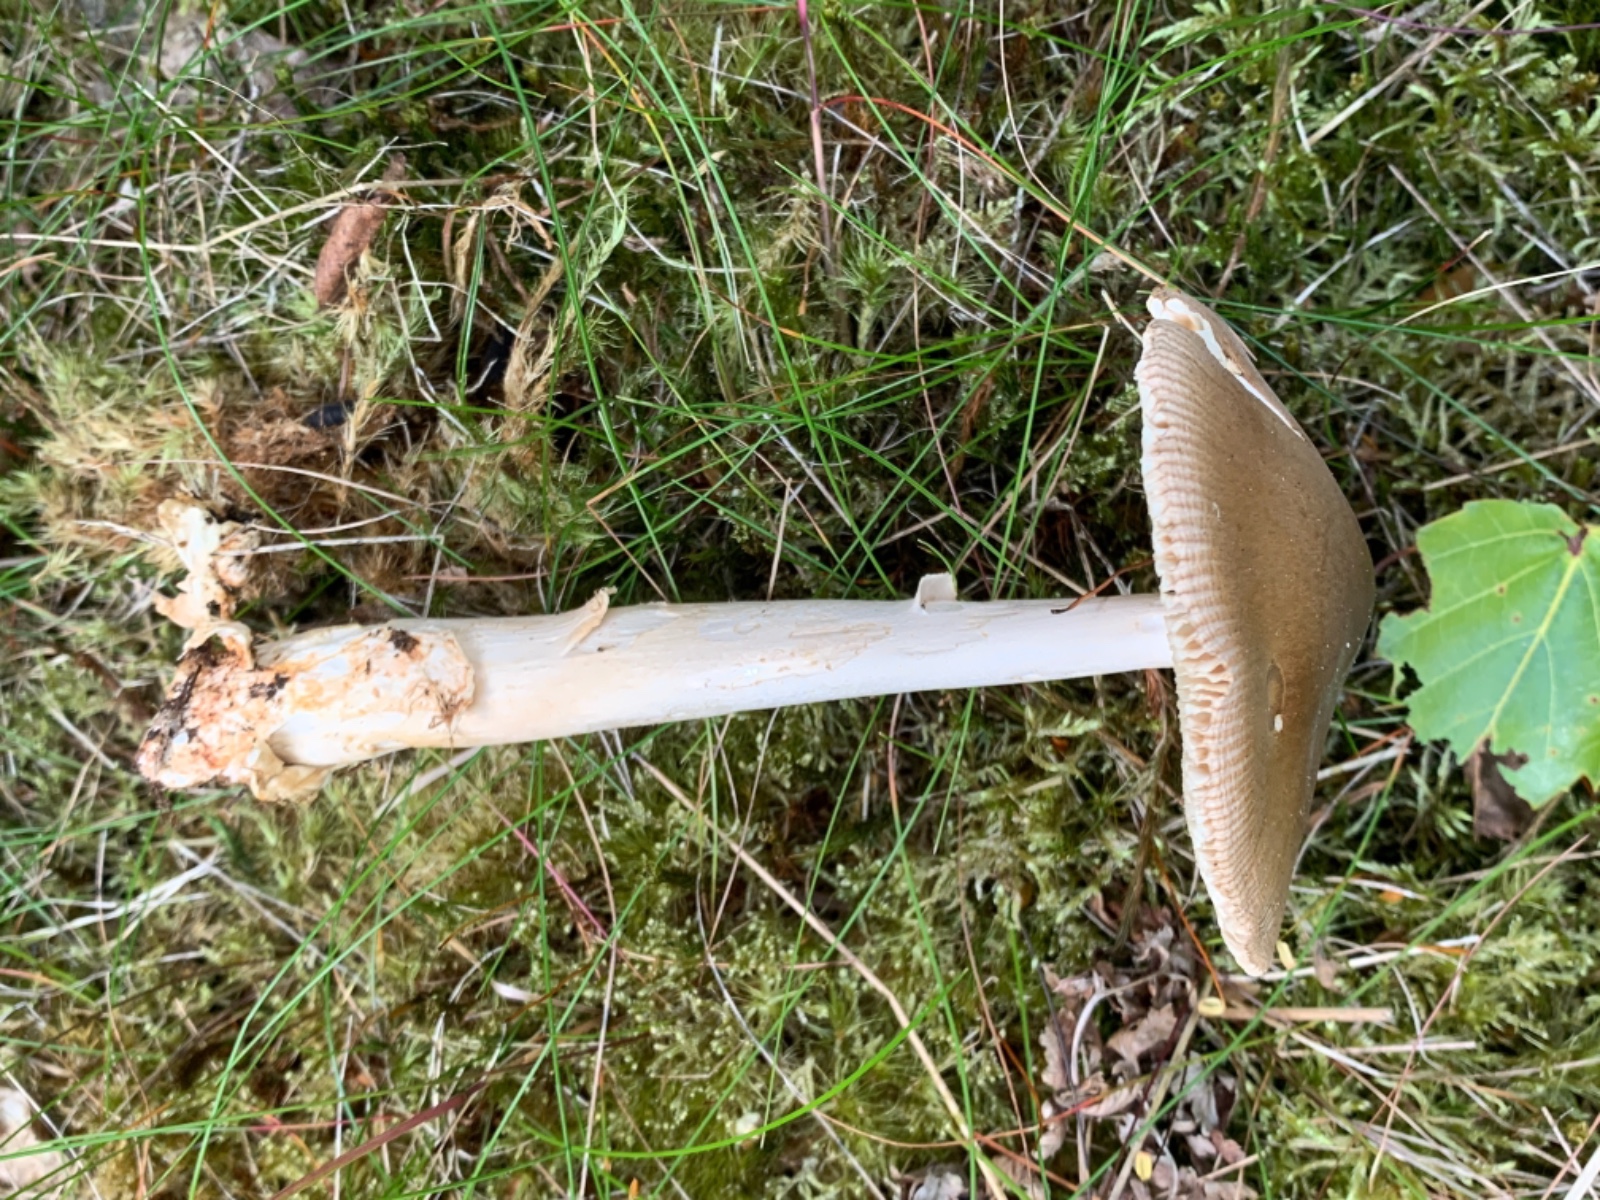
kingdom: Fungi
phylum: Basidiomycota
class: Agaricomycetes
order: Agaricales
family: Amanitaceae
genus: Amanita
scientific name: Amanita fulva
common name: brun kam-fluesvamp
